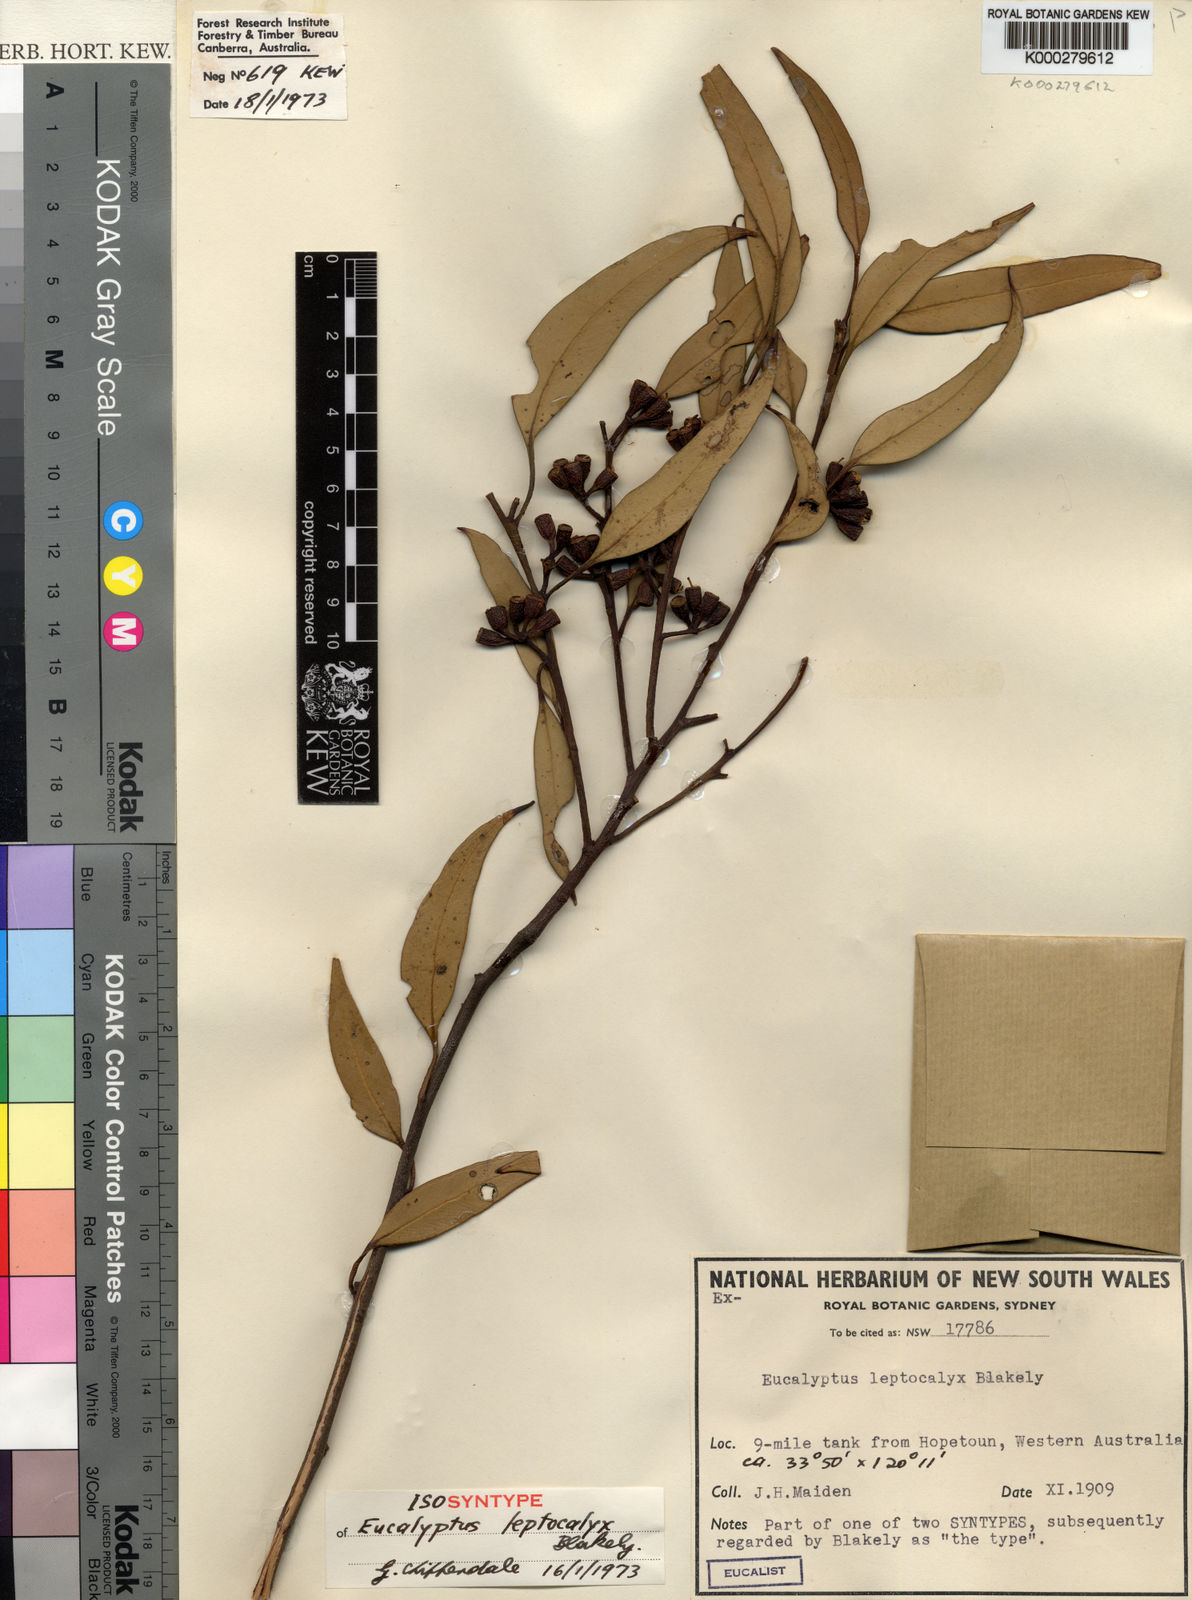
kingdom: Plantae
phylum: Tracheophyta
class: Magnoliopsida
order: Myrtales
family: Myrtaceae
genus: Eucalyptus
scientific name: Eucalyptus leptocalyx
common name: Hopetoun mallee
